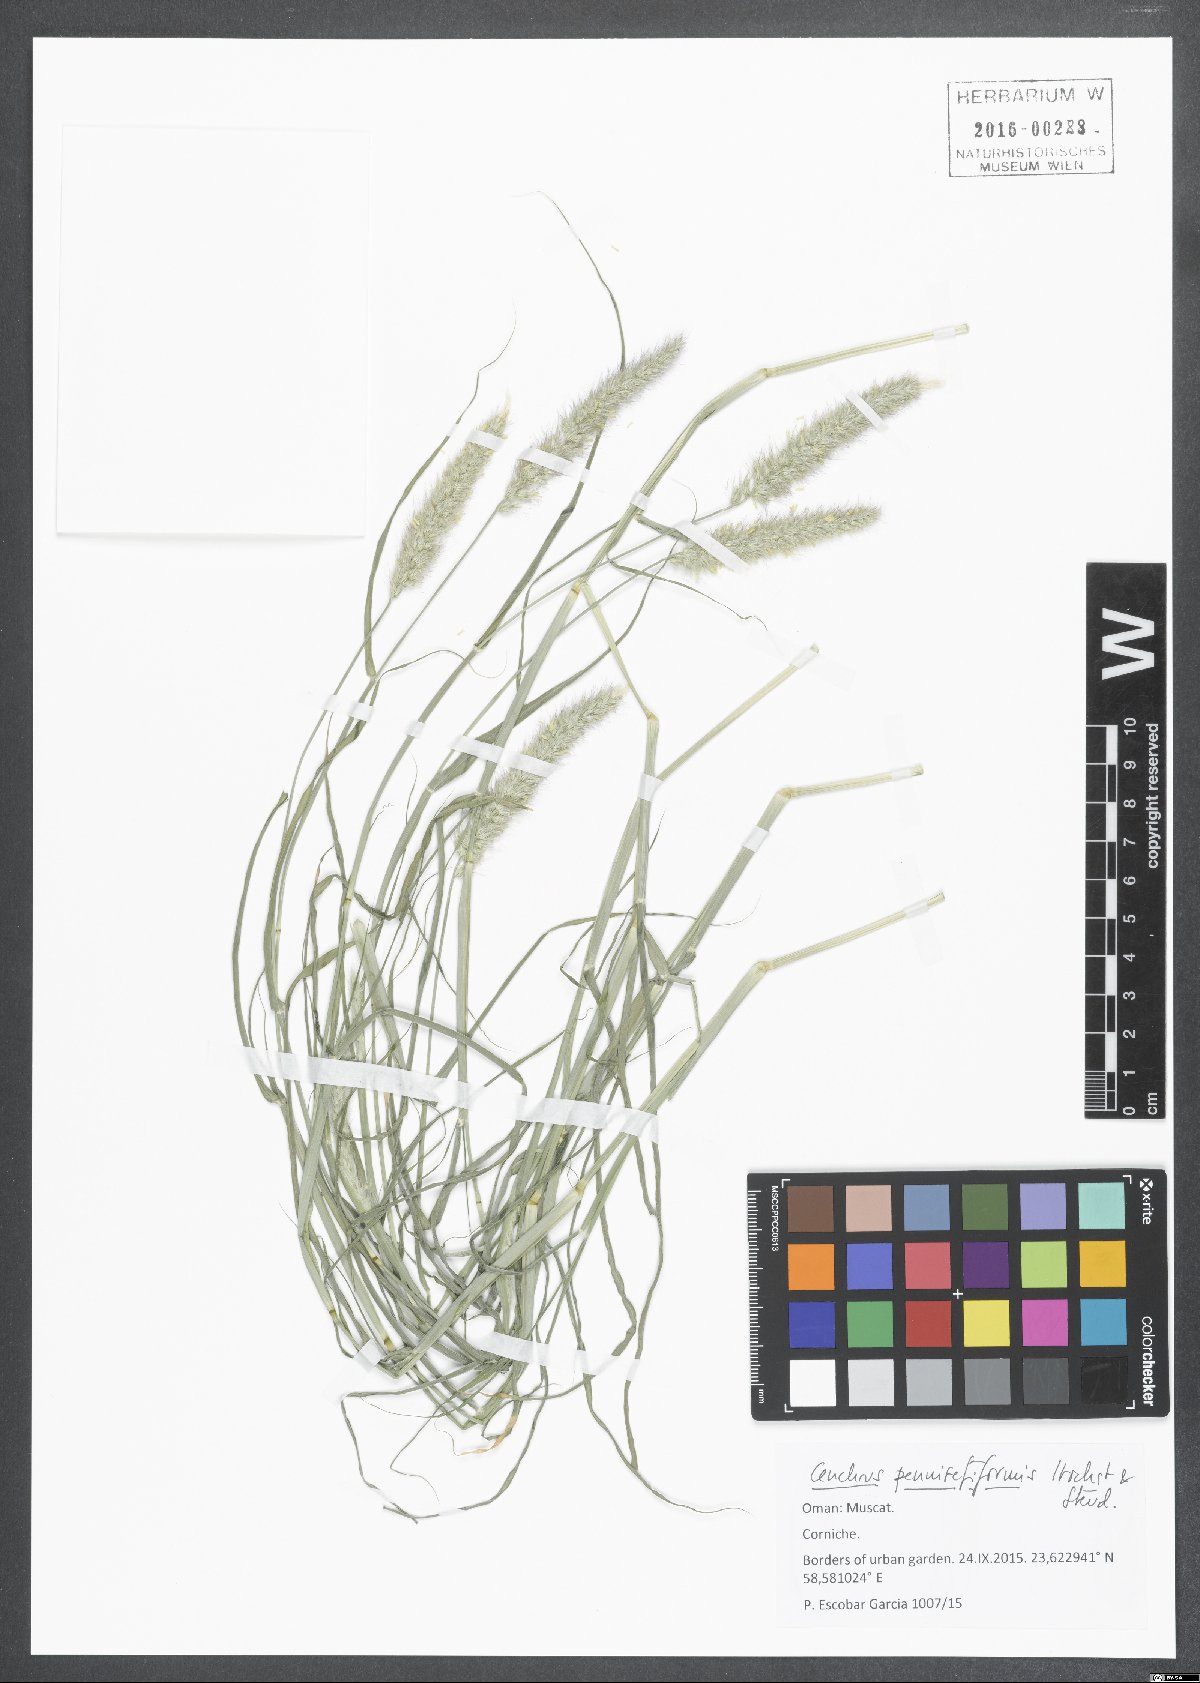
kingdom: Plantae
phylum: Tracheophyta
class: Liliopsida
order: Poales
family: Poaceae
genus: Cenchrus
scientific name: Cenchrus pennisetiformis
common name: Cloncurry
